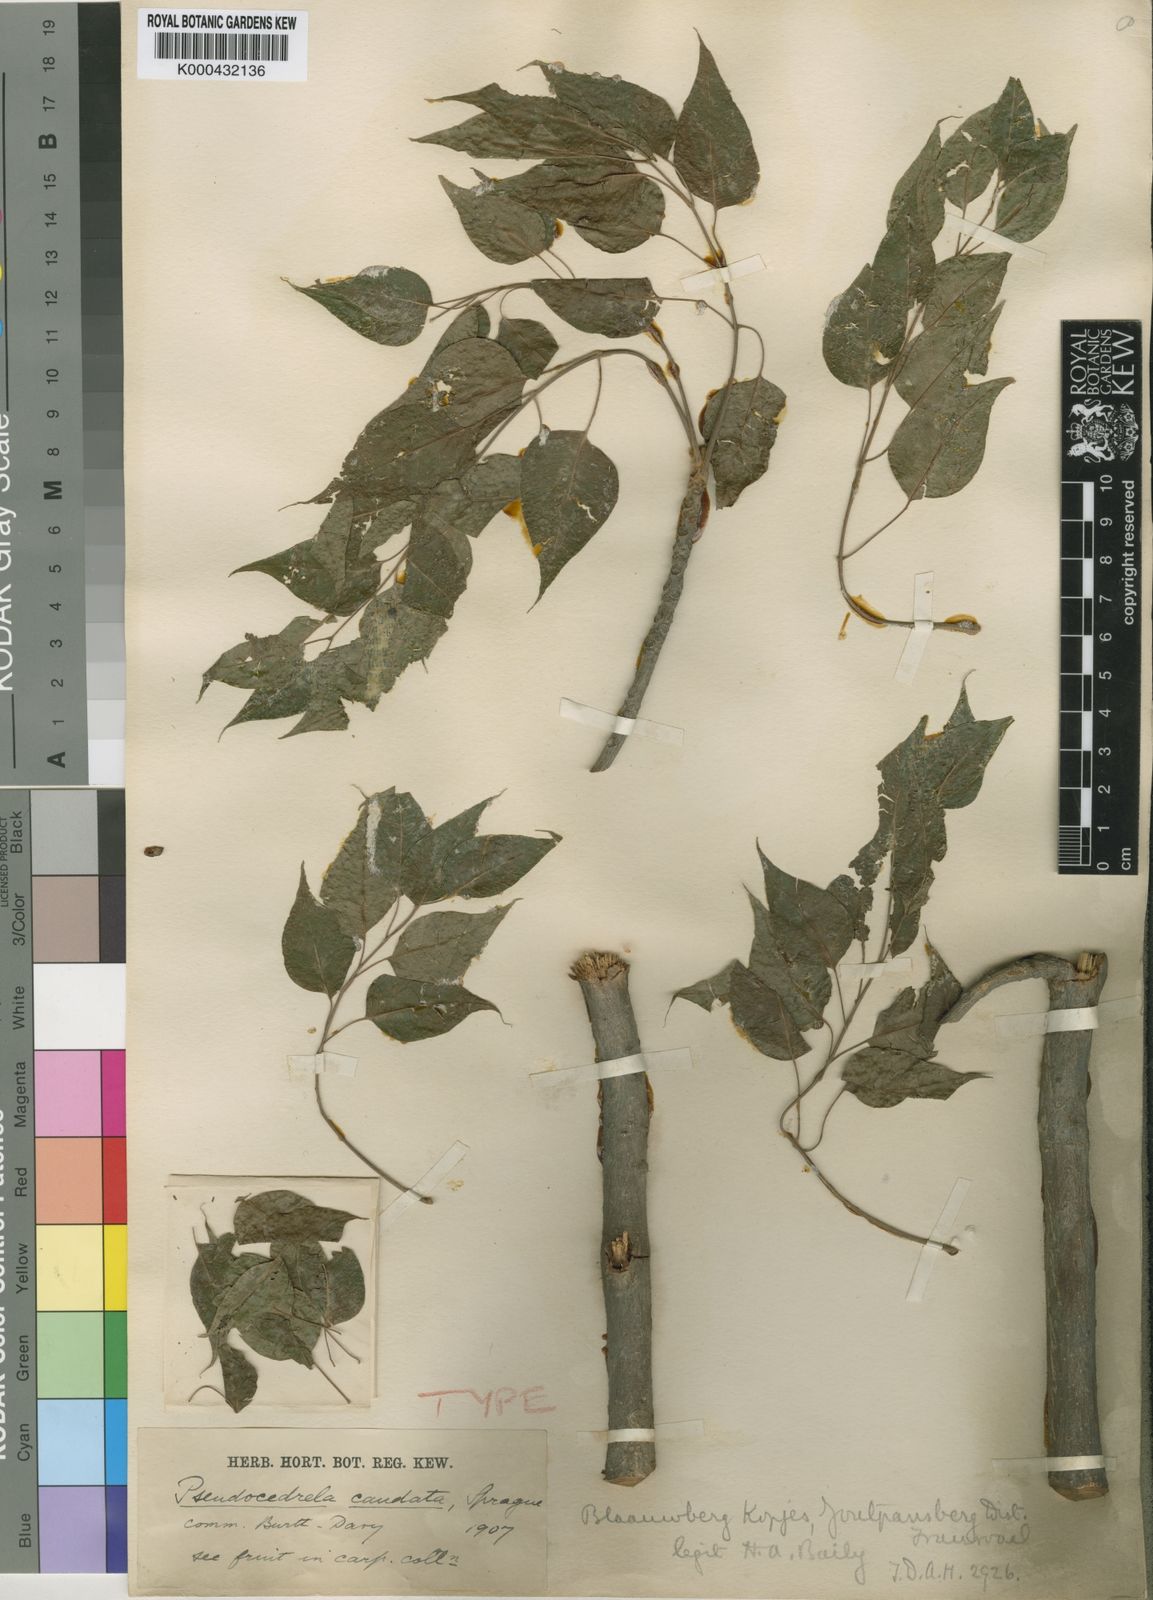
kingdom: Plantae
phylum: Tracheophyta
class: Magnoliopsida
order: Sapindales
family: Meliaceae
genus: Entandrophragma
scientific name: Entandrophragma caudatum
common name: Mountain-mahogany
